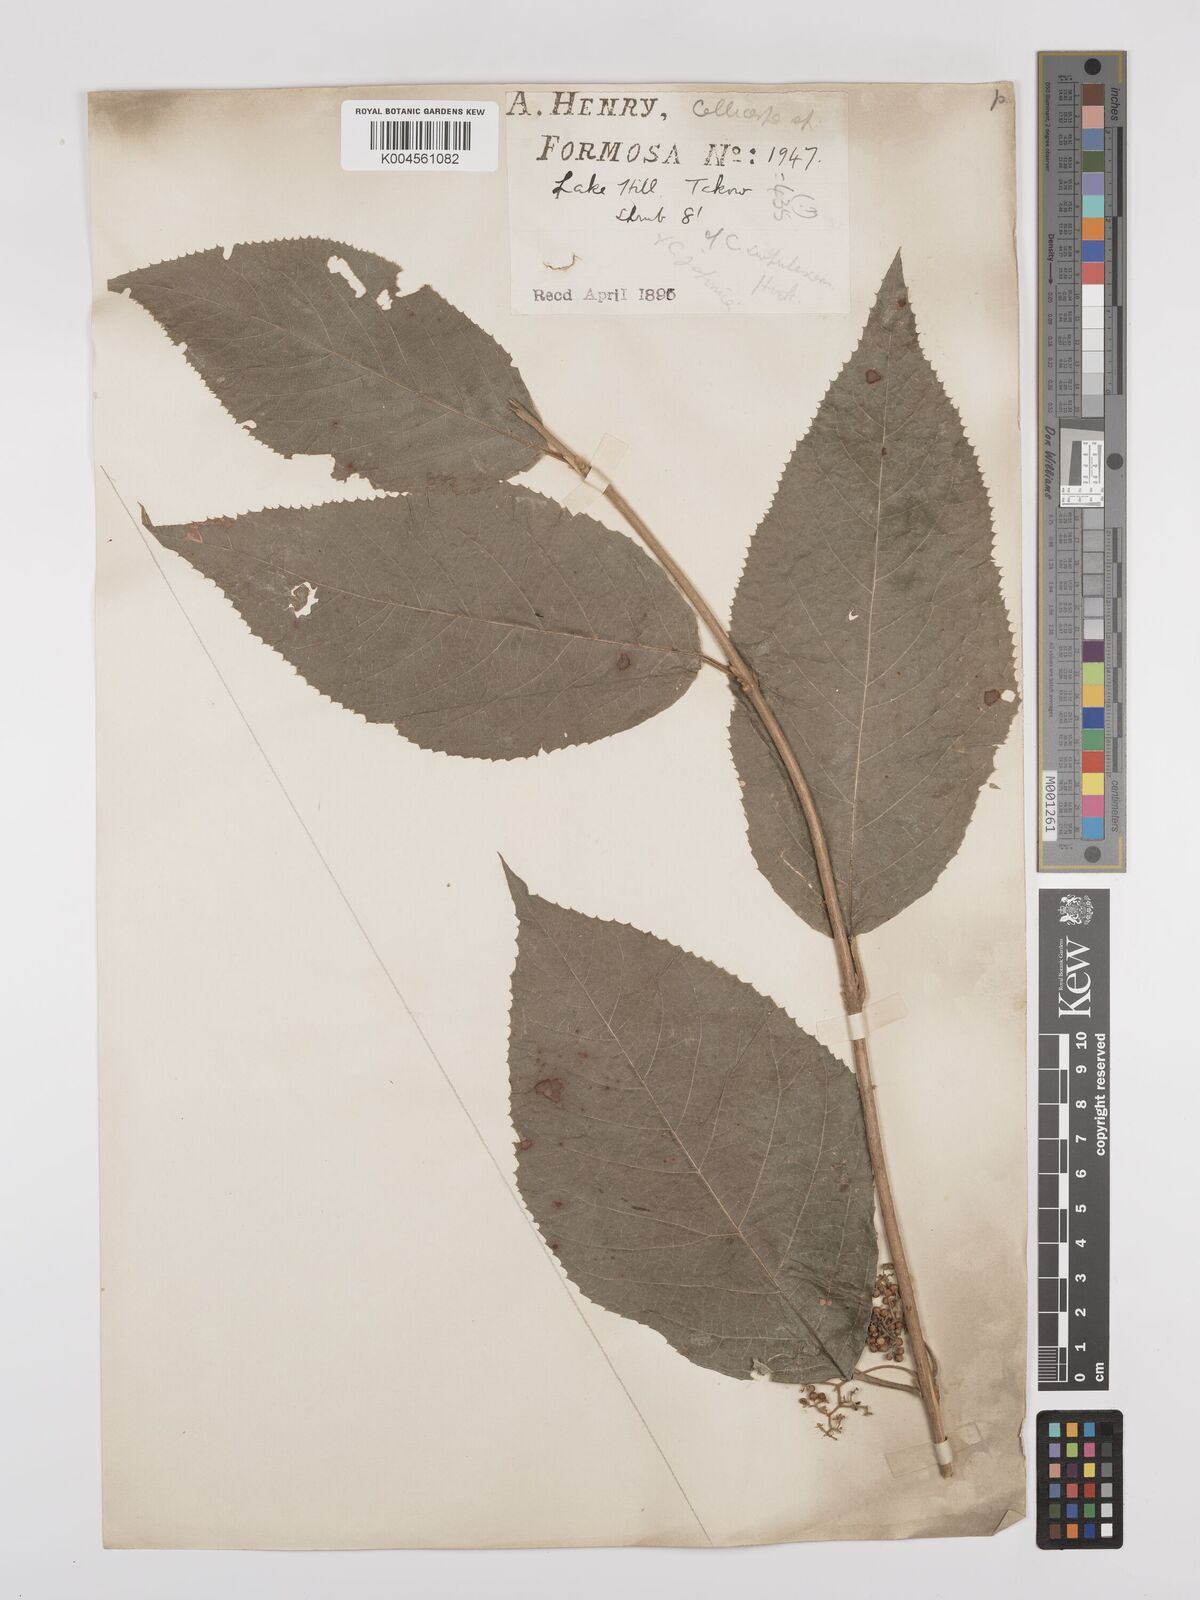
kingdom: Plantae
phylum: Tracheophyta
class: Magnoliopsida
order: Lamiales
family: Lamiaceae
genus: Callicarpa
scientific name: Callicarpa japonica
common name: Japanese beauty-berry
